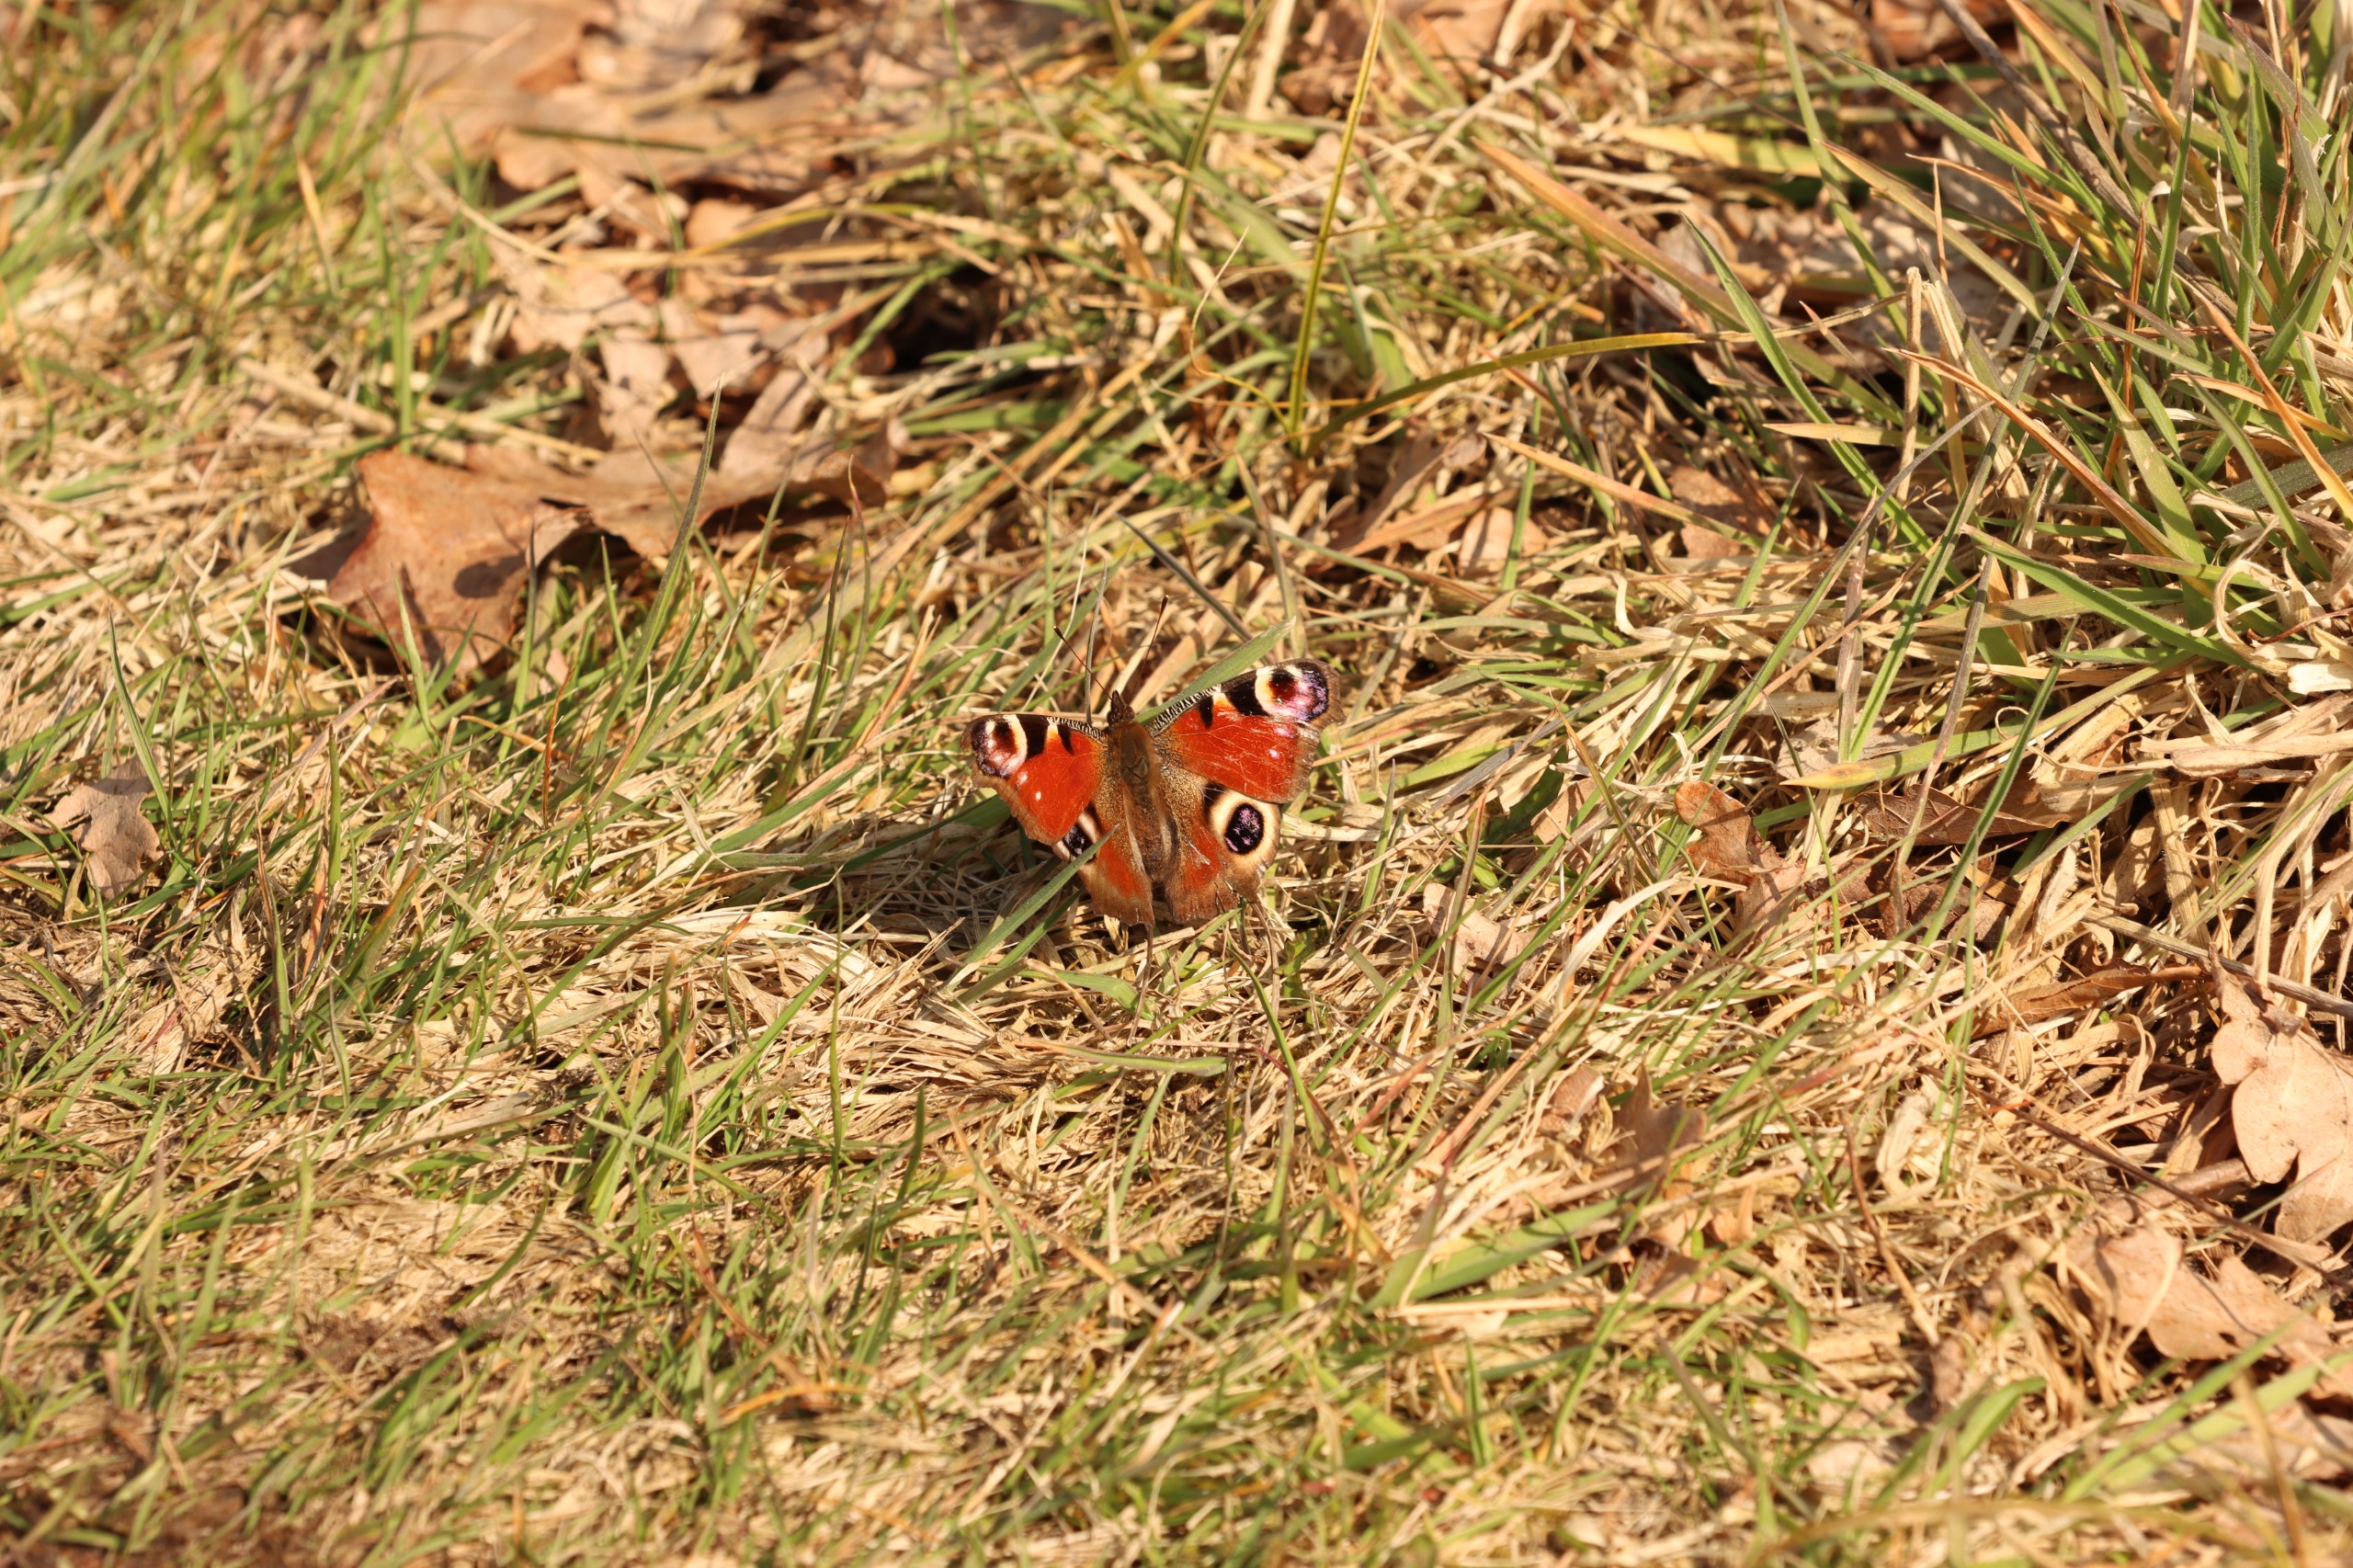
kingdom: Animalia
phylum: Arthropoda
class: Insecta
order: Lepidoptera
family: Nymphalidae
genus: Aglais
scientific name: Aglais io
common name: Dagpåfugleøje
